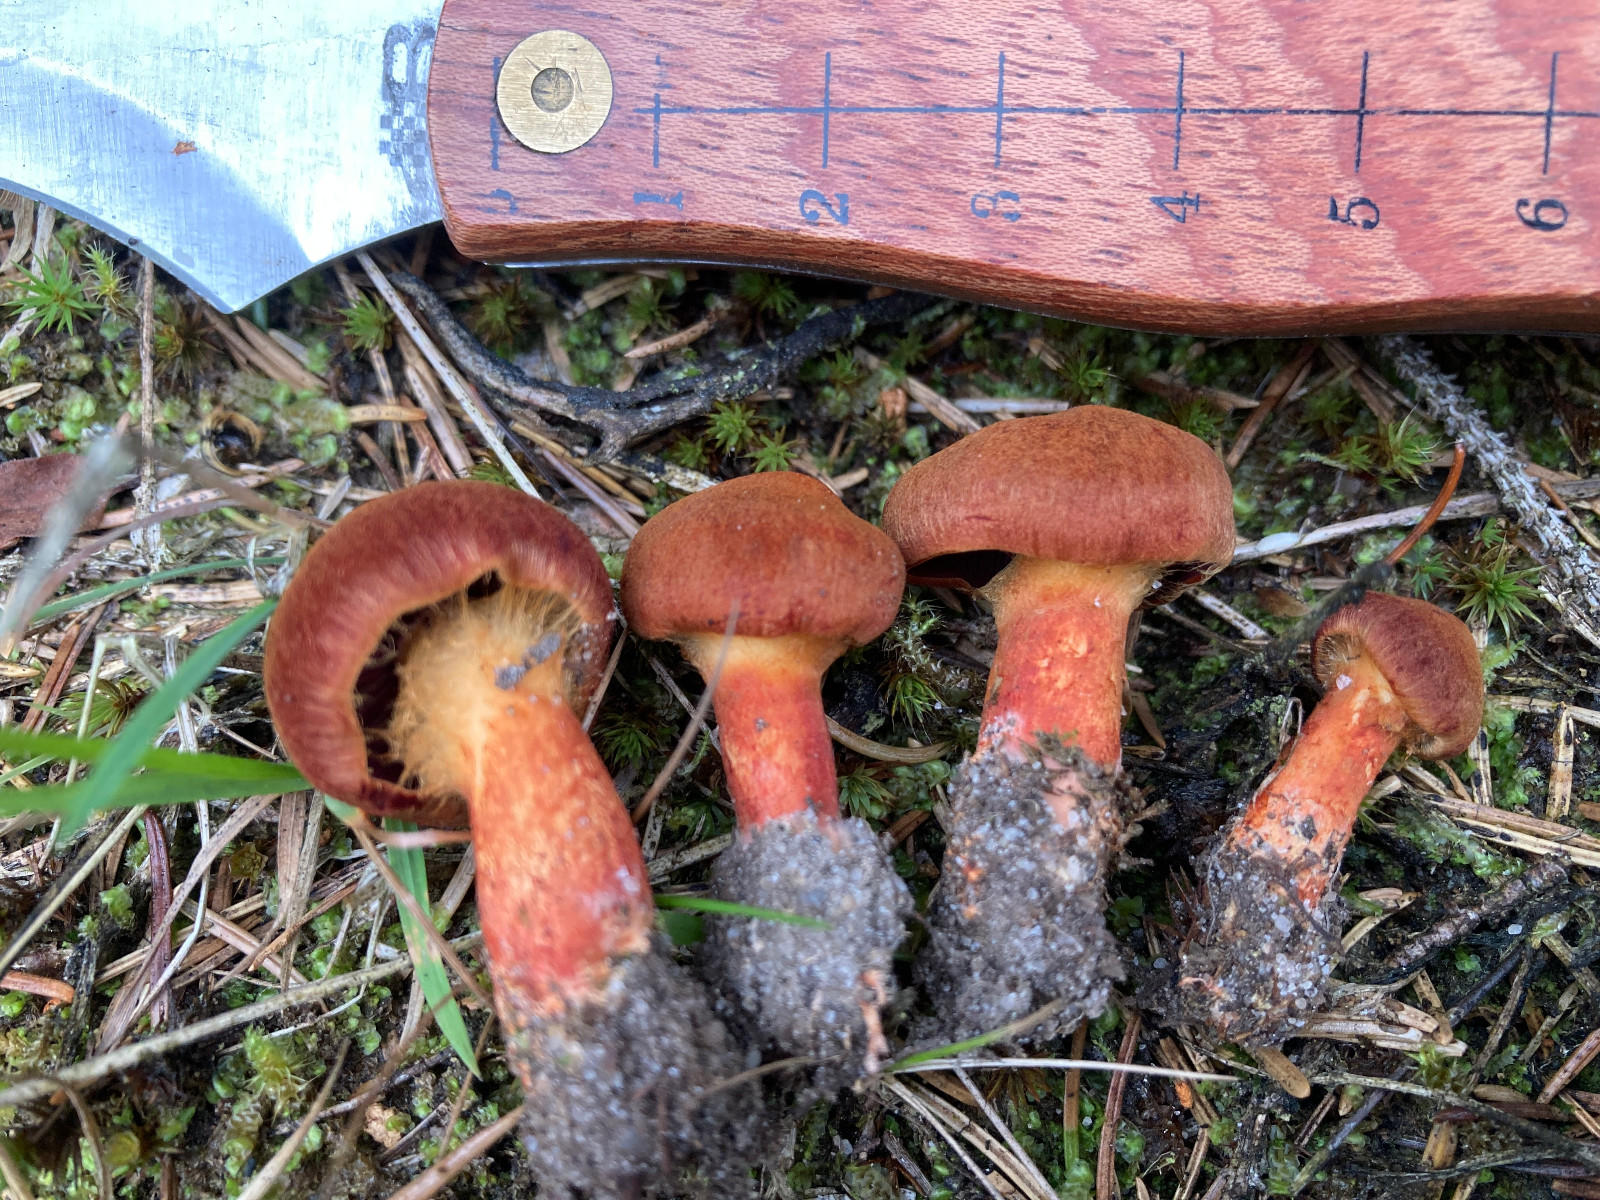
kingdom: Fungi
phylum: Basidiomycota
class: Agaricomycetes
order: Agaricales
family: Cortinariaceae
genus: Cortinarius
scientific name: Cortinarius purpureus
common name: brunrød slørhat
